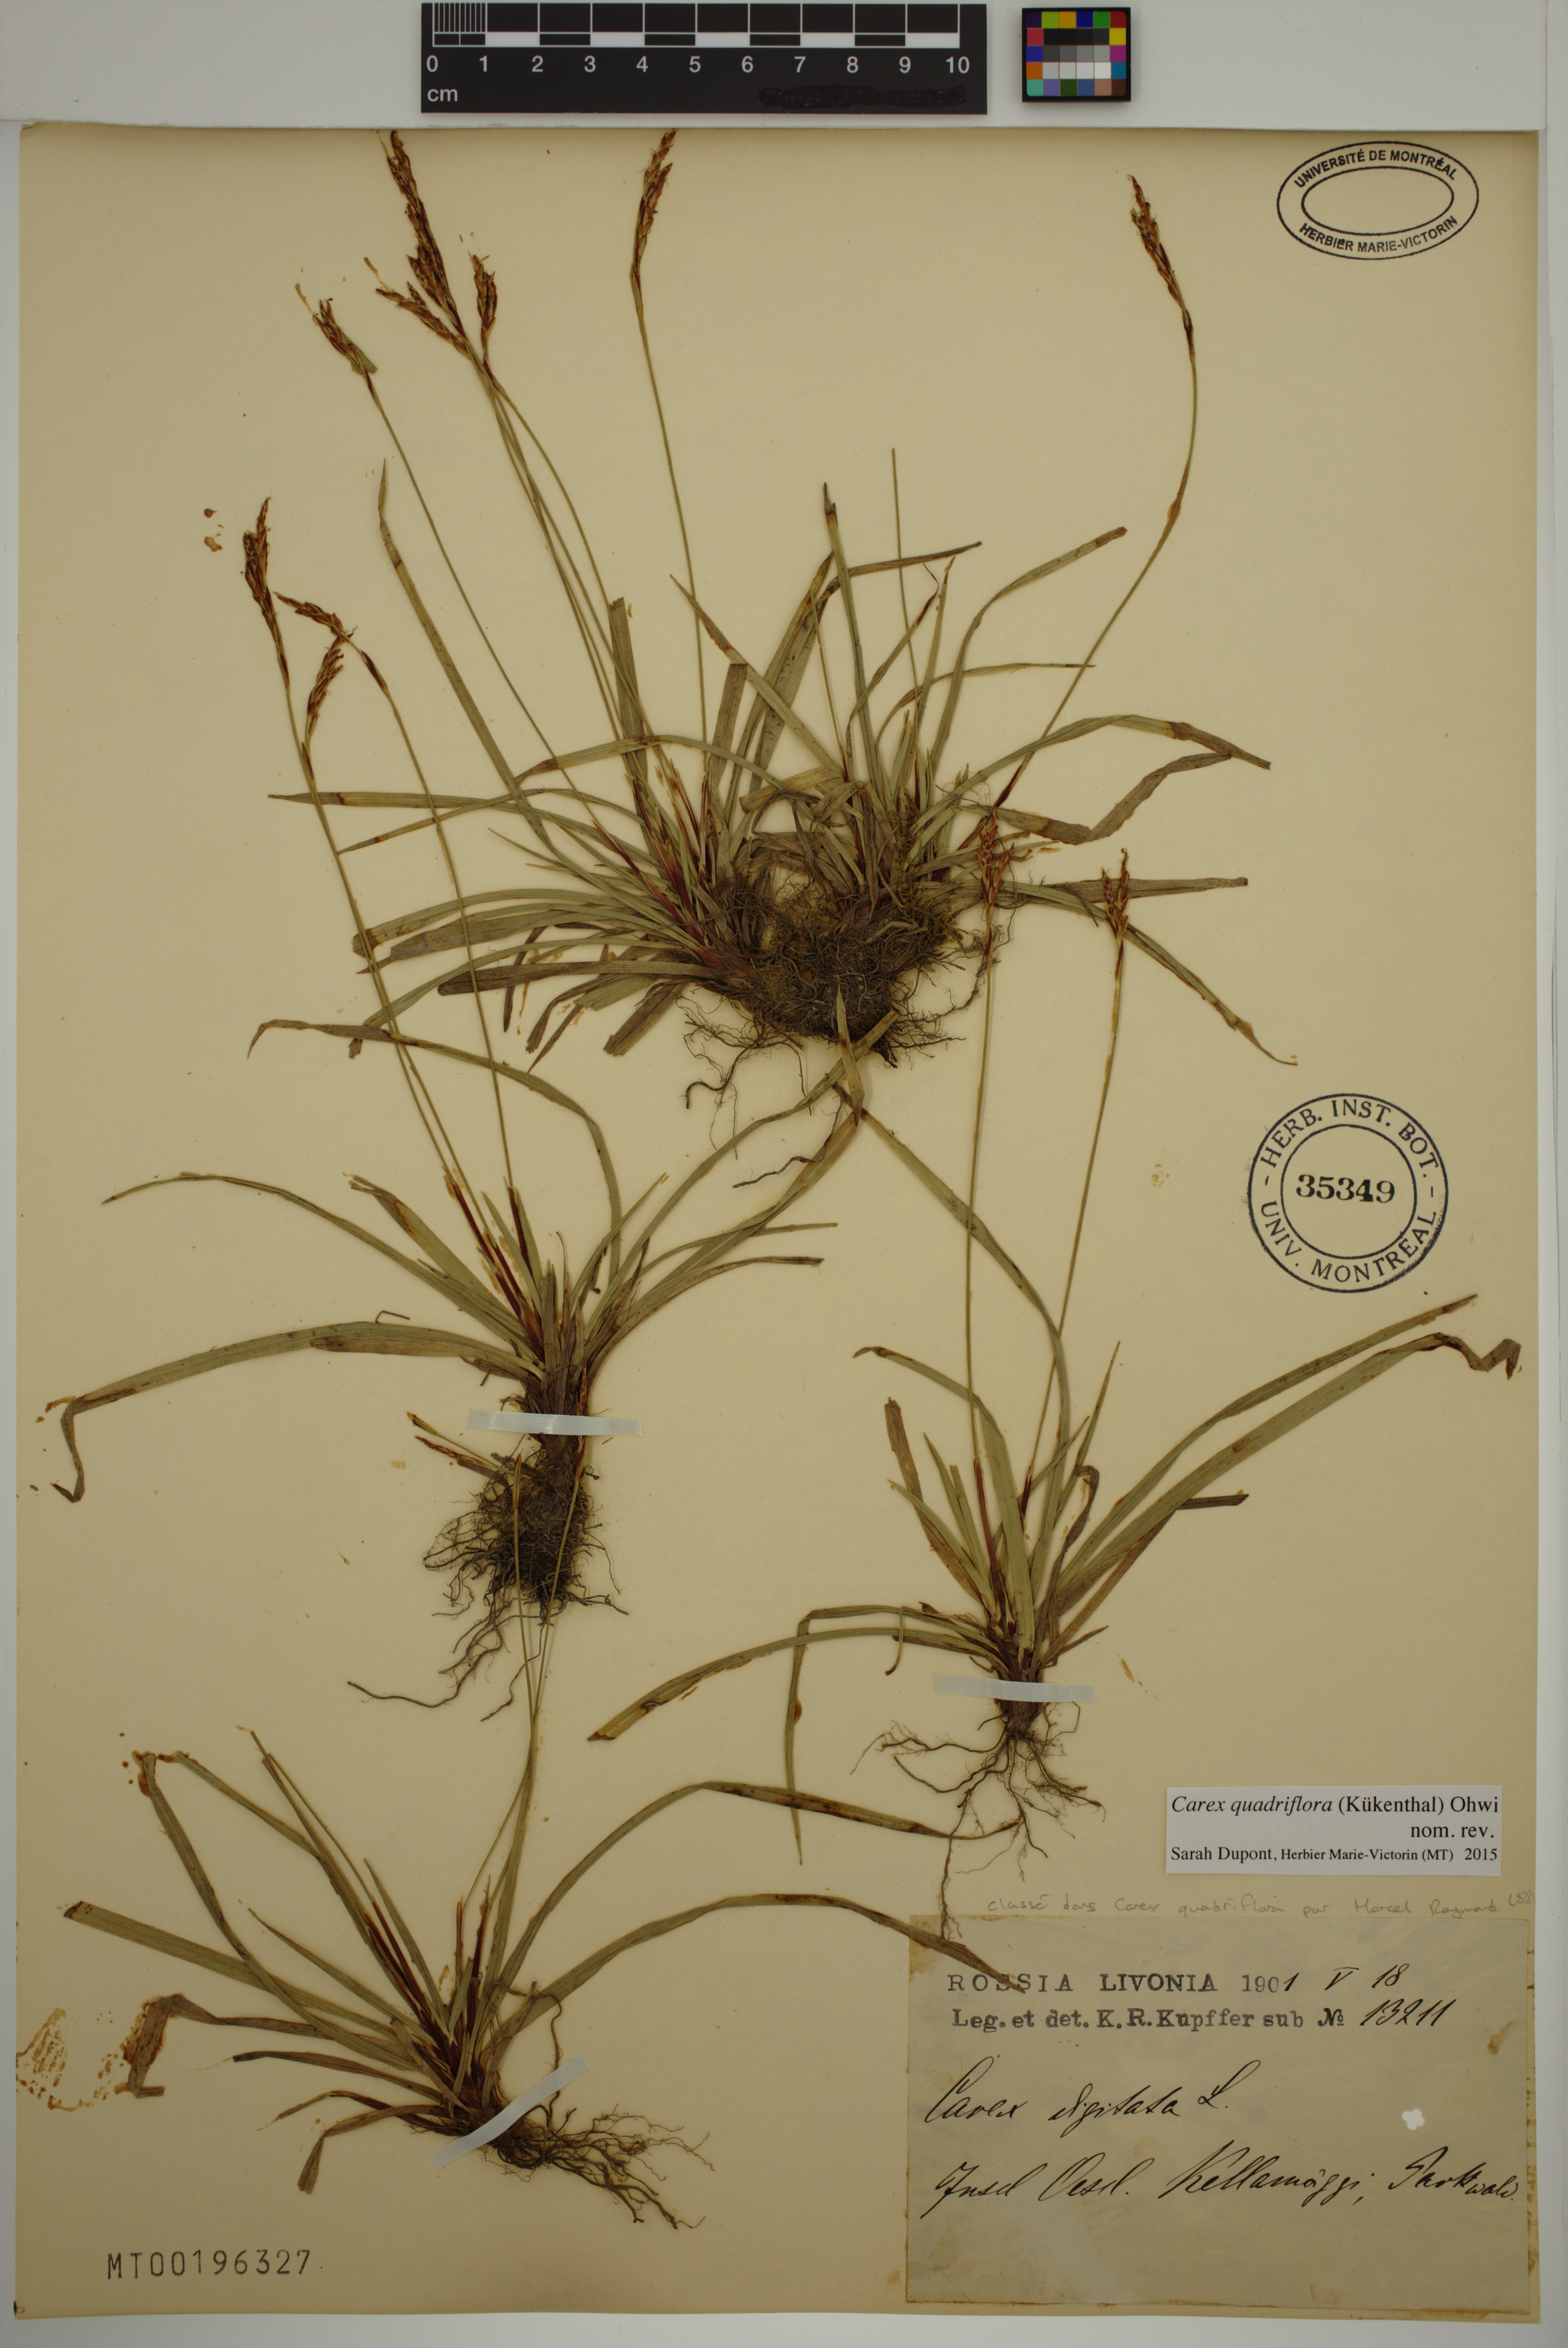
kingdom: Plantae
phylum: Tracheophyta
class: Liliopsida
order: Poales
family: Cyperaceae
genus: Carex
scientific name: Carex quadriflora
